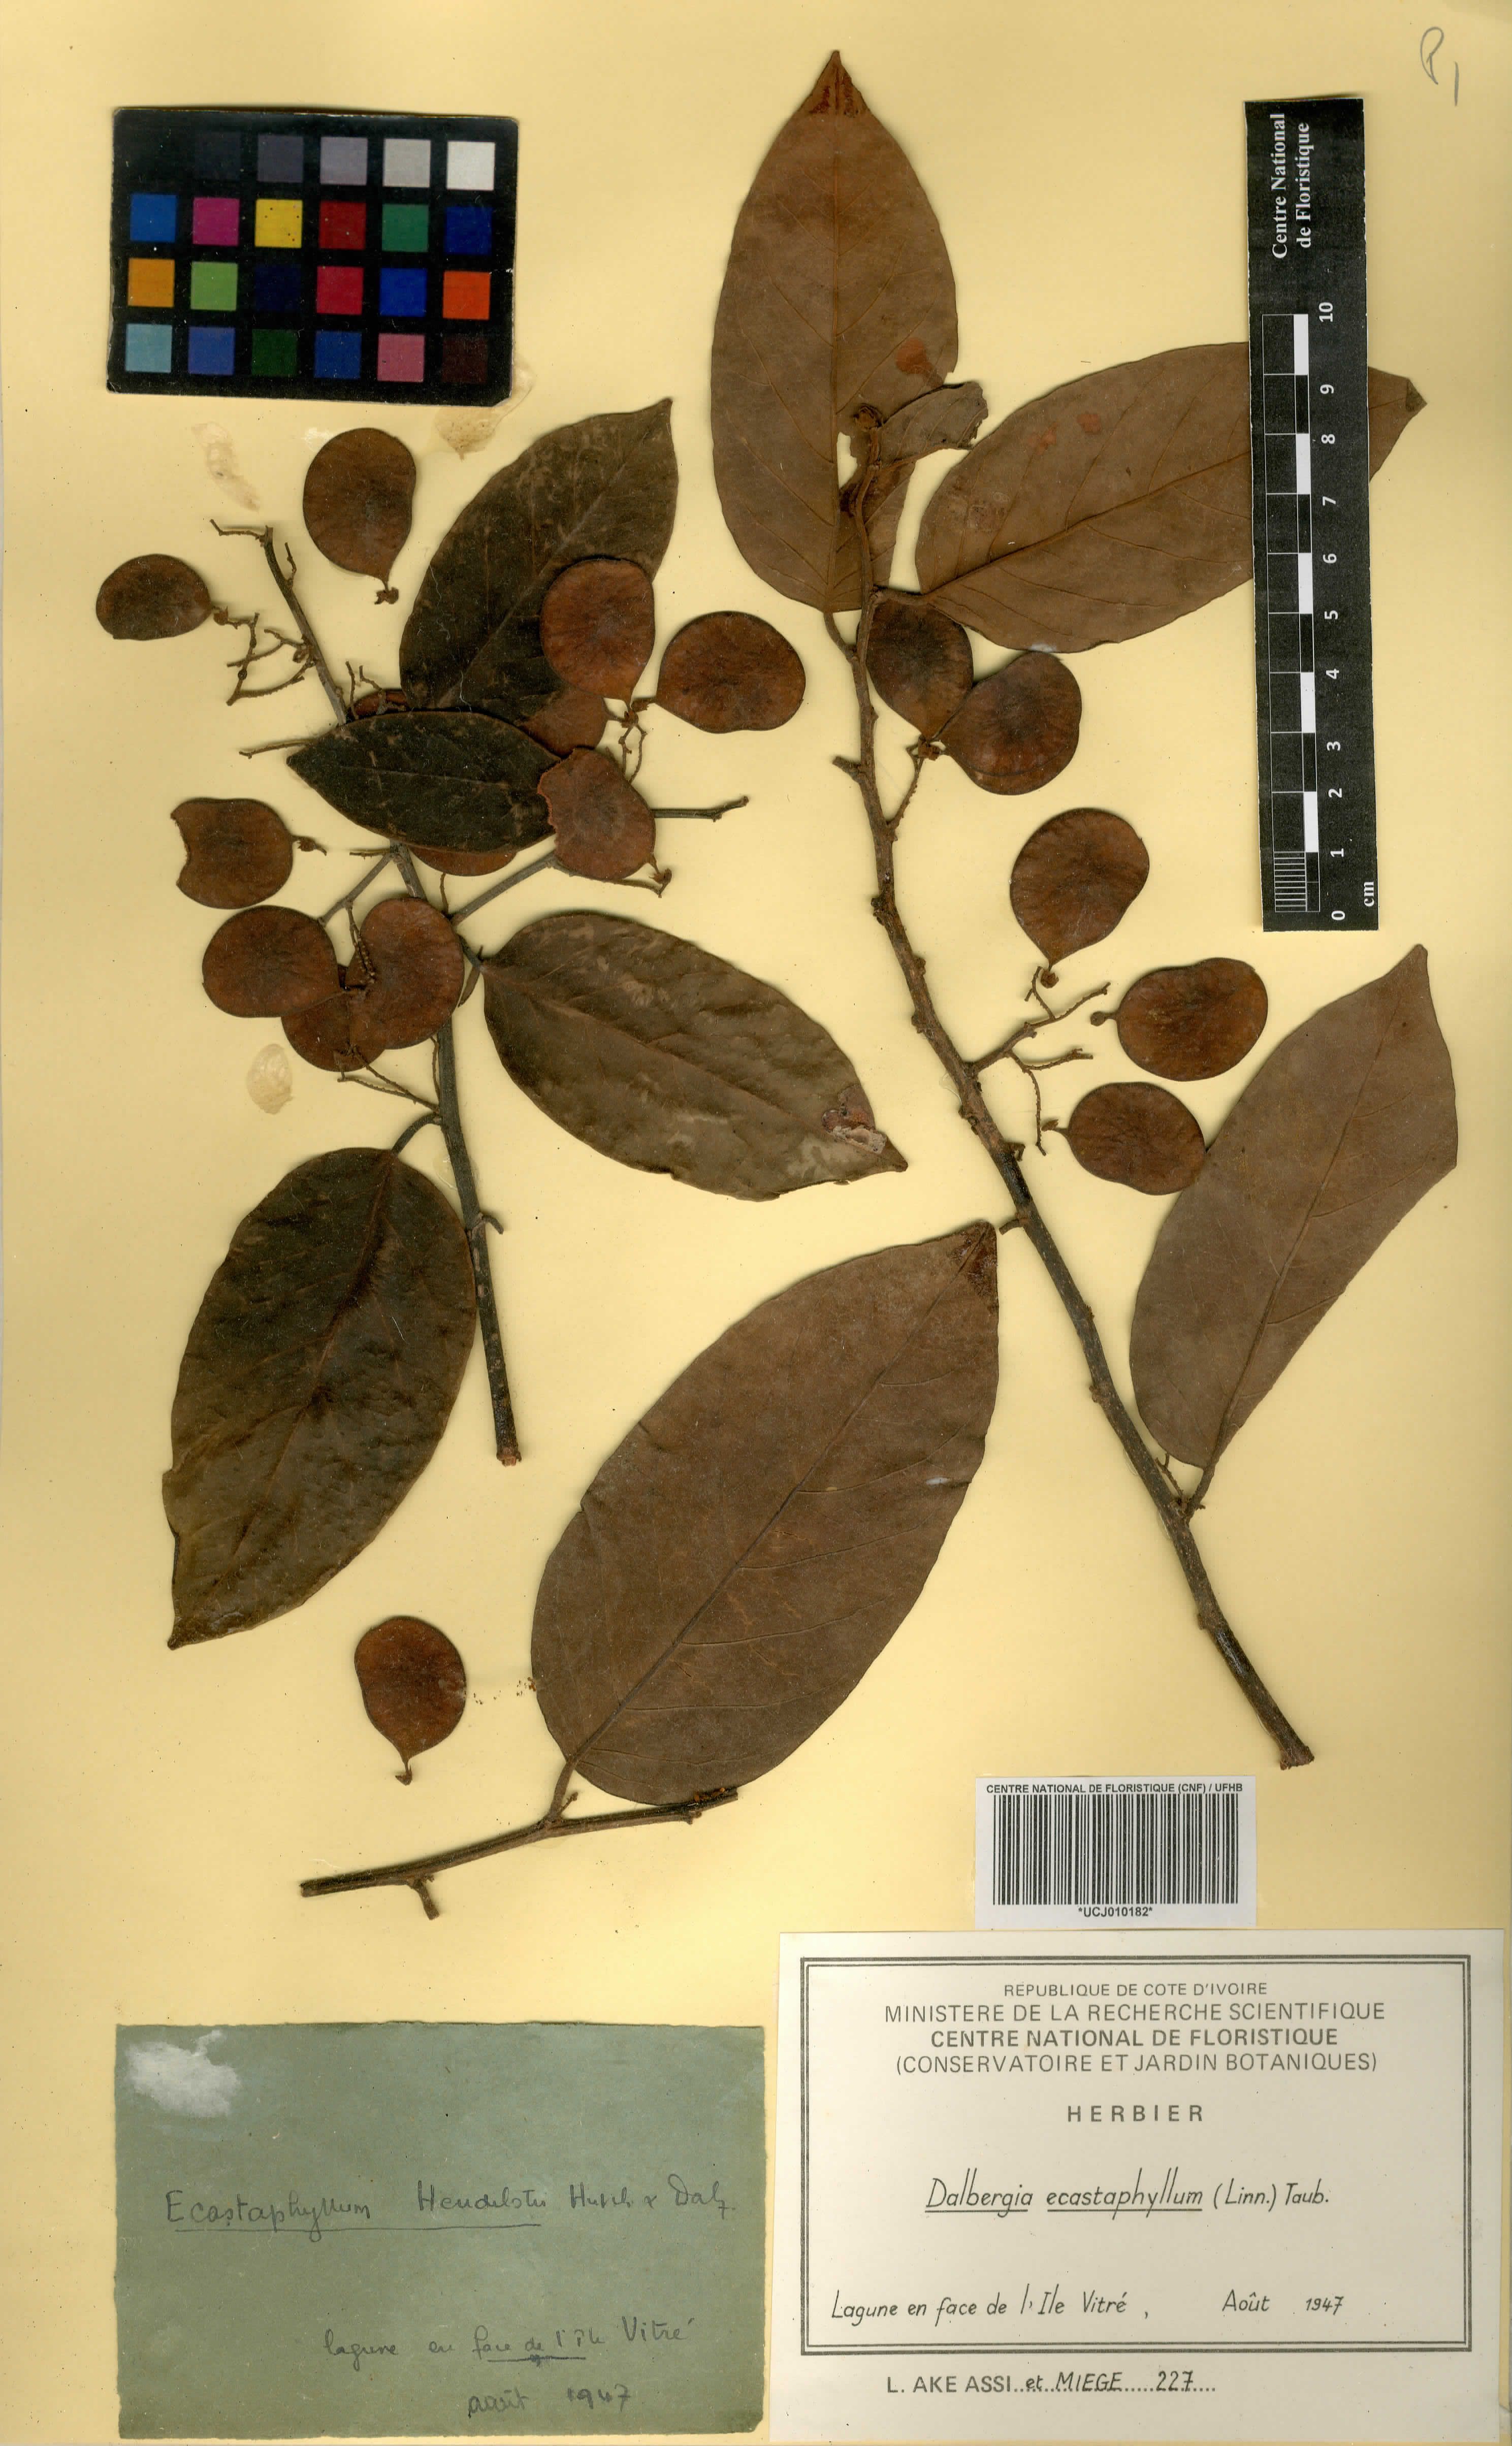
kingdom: Plantae
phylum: Tracheophyta
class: Magnoliopsida
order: Fabales
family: Fabaceae
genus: Dalbergia
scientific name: Dalbergia ecastaphyllum
